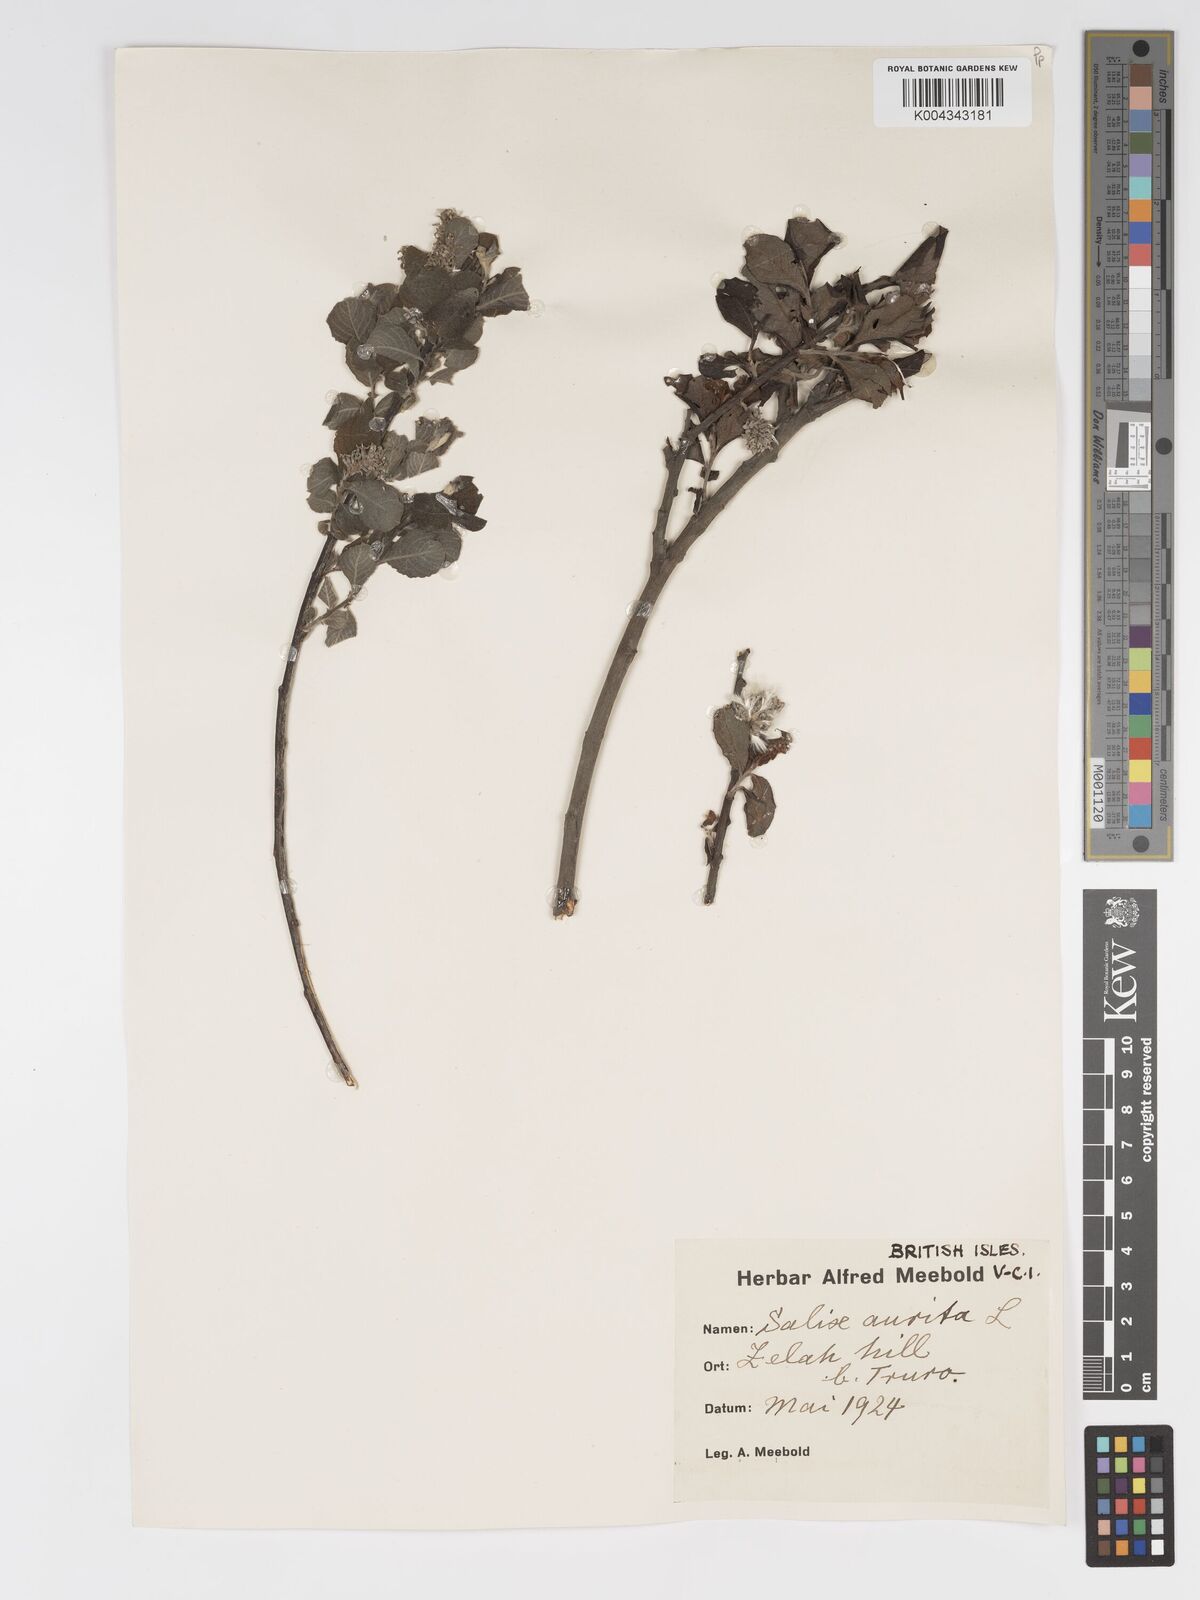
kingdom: Plantae
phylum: Tracheophyta
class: Magnoliopsida
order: Malpighiales
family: Salicaceae
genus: Salix
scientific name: Salix aurita
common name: Eared willow
